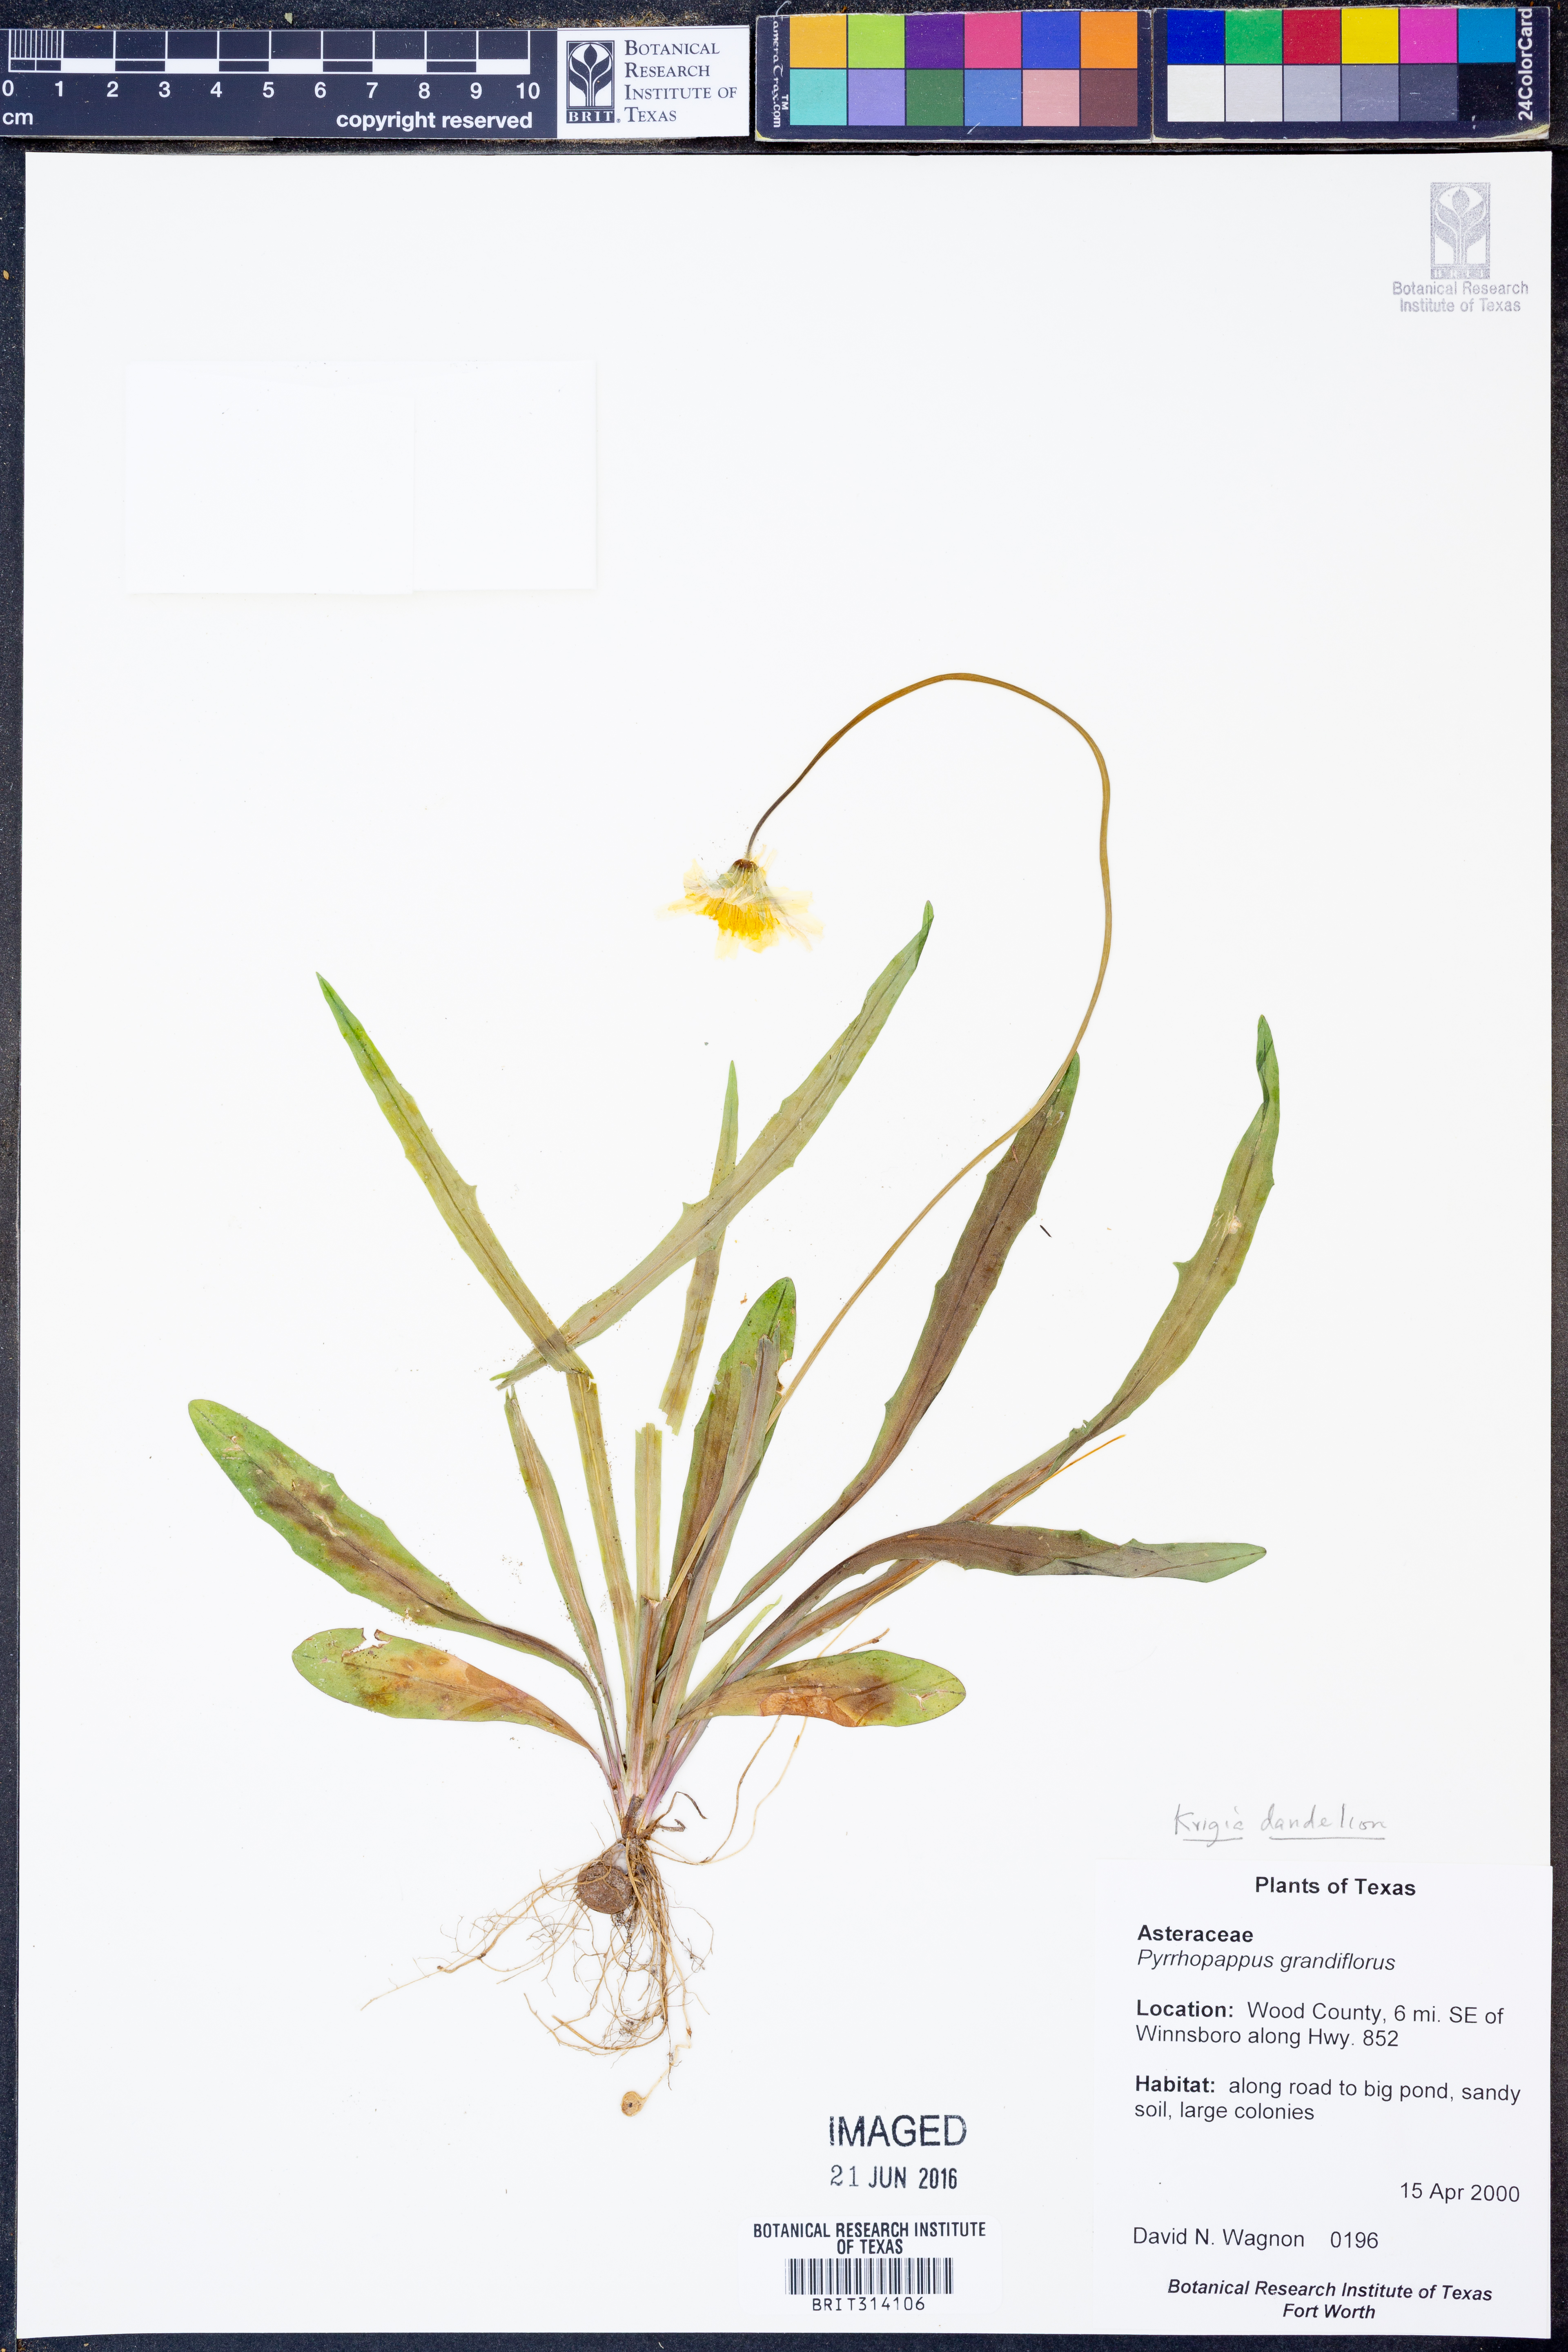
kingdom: Plantae
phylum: Tracheophyta
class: Magnoliopsida
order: Asterales
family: Asteraceae
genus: Krigia
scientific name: Krigia dandelion
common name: Colonial dwarf-dandelion
